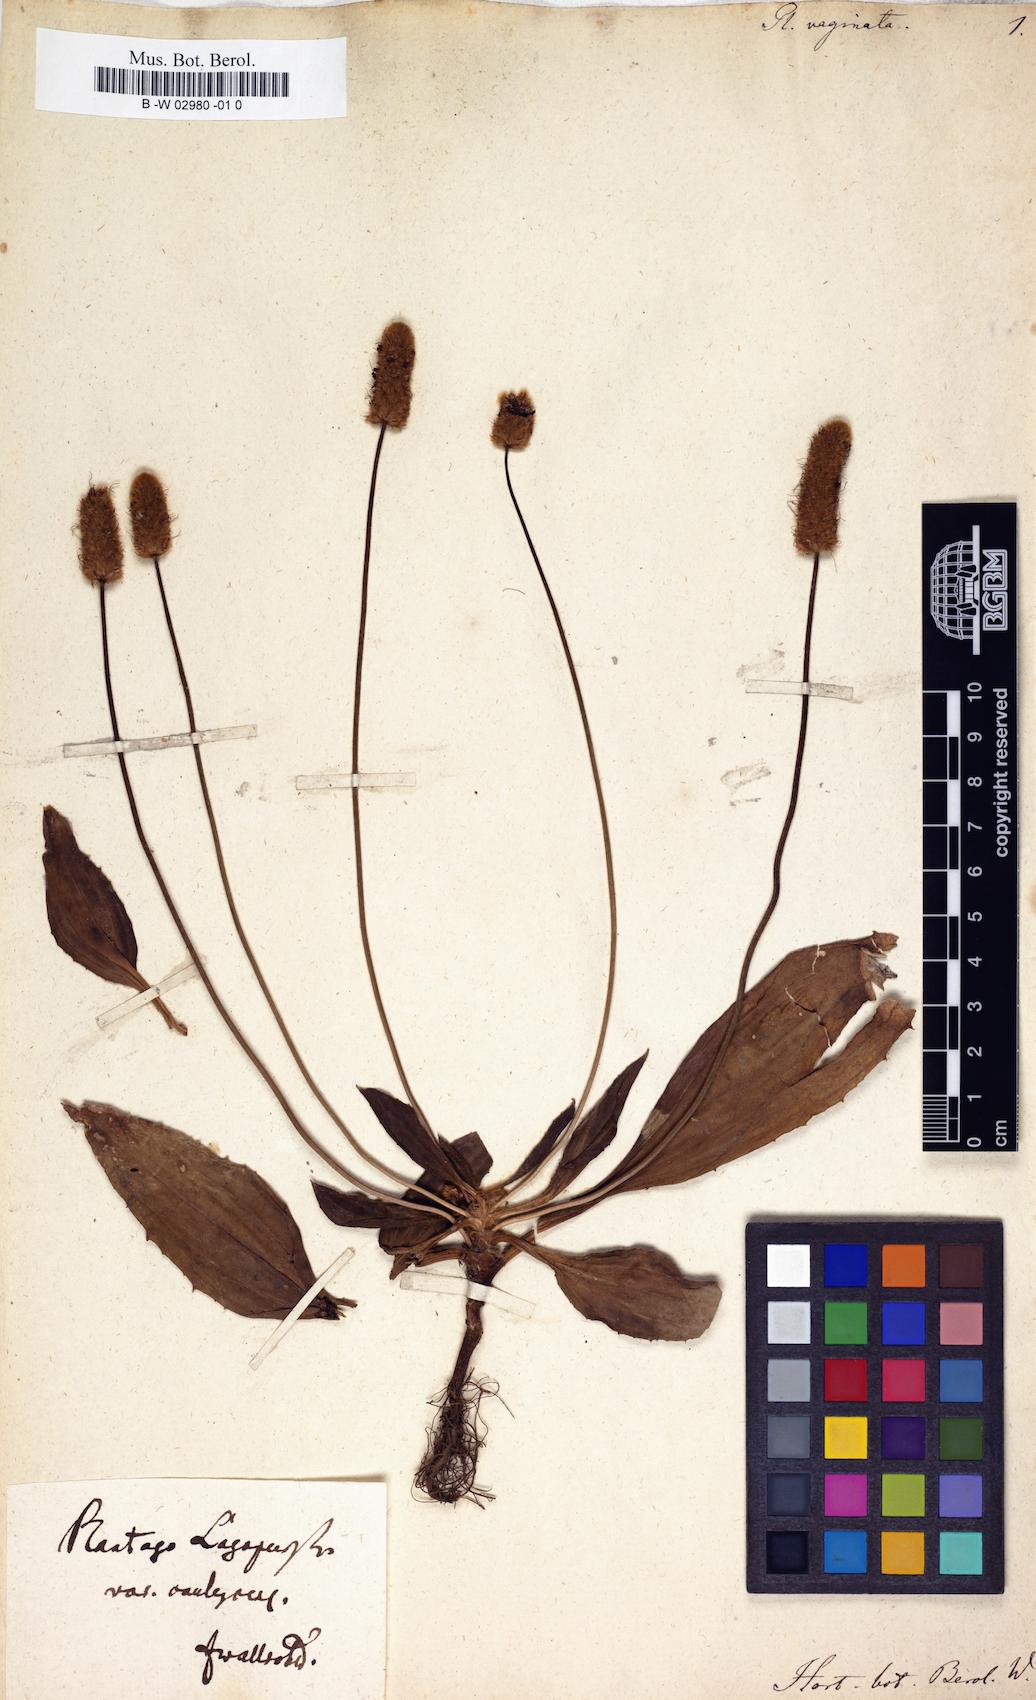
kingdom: Plantae
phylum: Tracheophyta
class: Magnoliopsida
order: Lamiales
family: Plantaginaceae
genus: Plantago
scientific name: Plantago lagopus
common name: Hare-foot plantain
